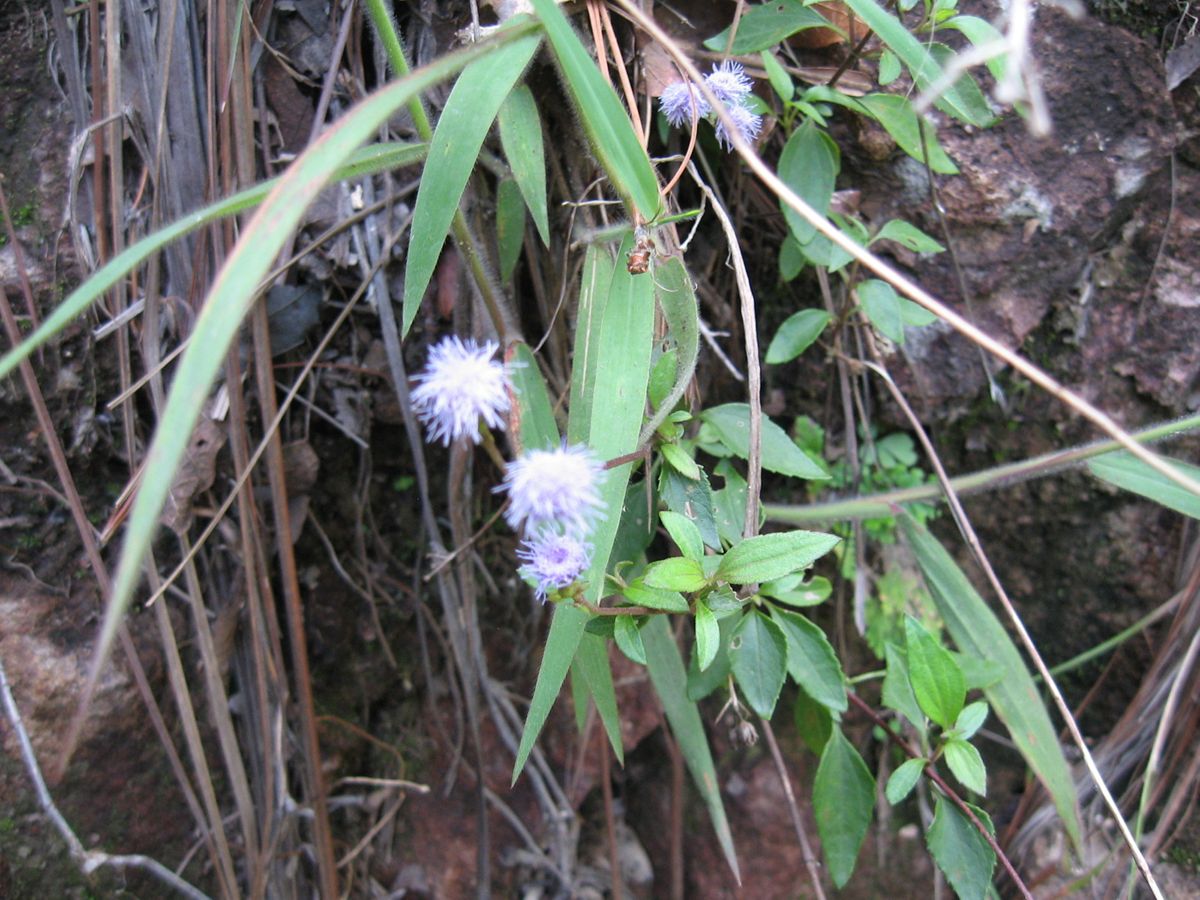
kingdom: Plantae
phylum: Tracheophyta
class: Magnoliopsida
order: Asterales
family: Asteraceae
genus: Fleischmannia
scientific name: Fleischmannia imitans
